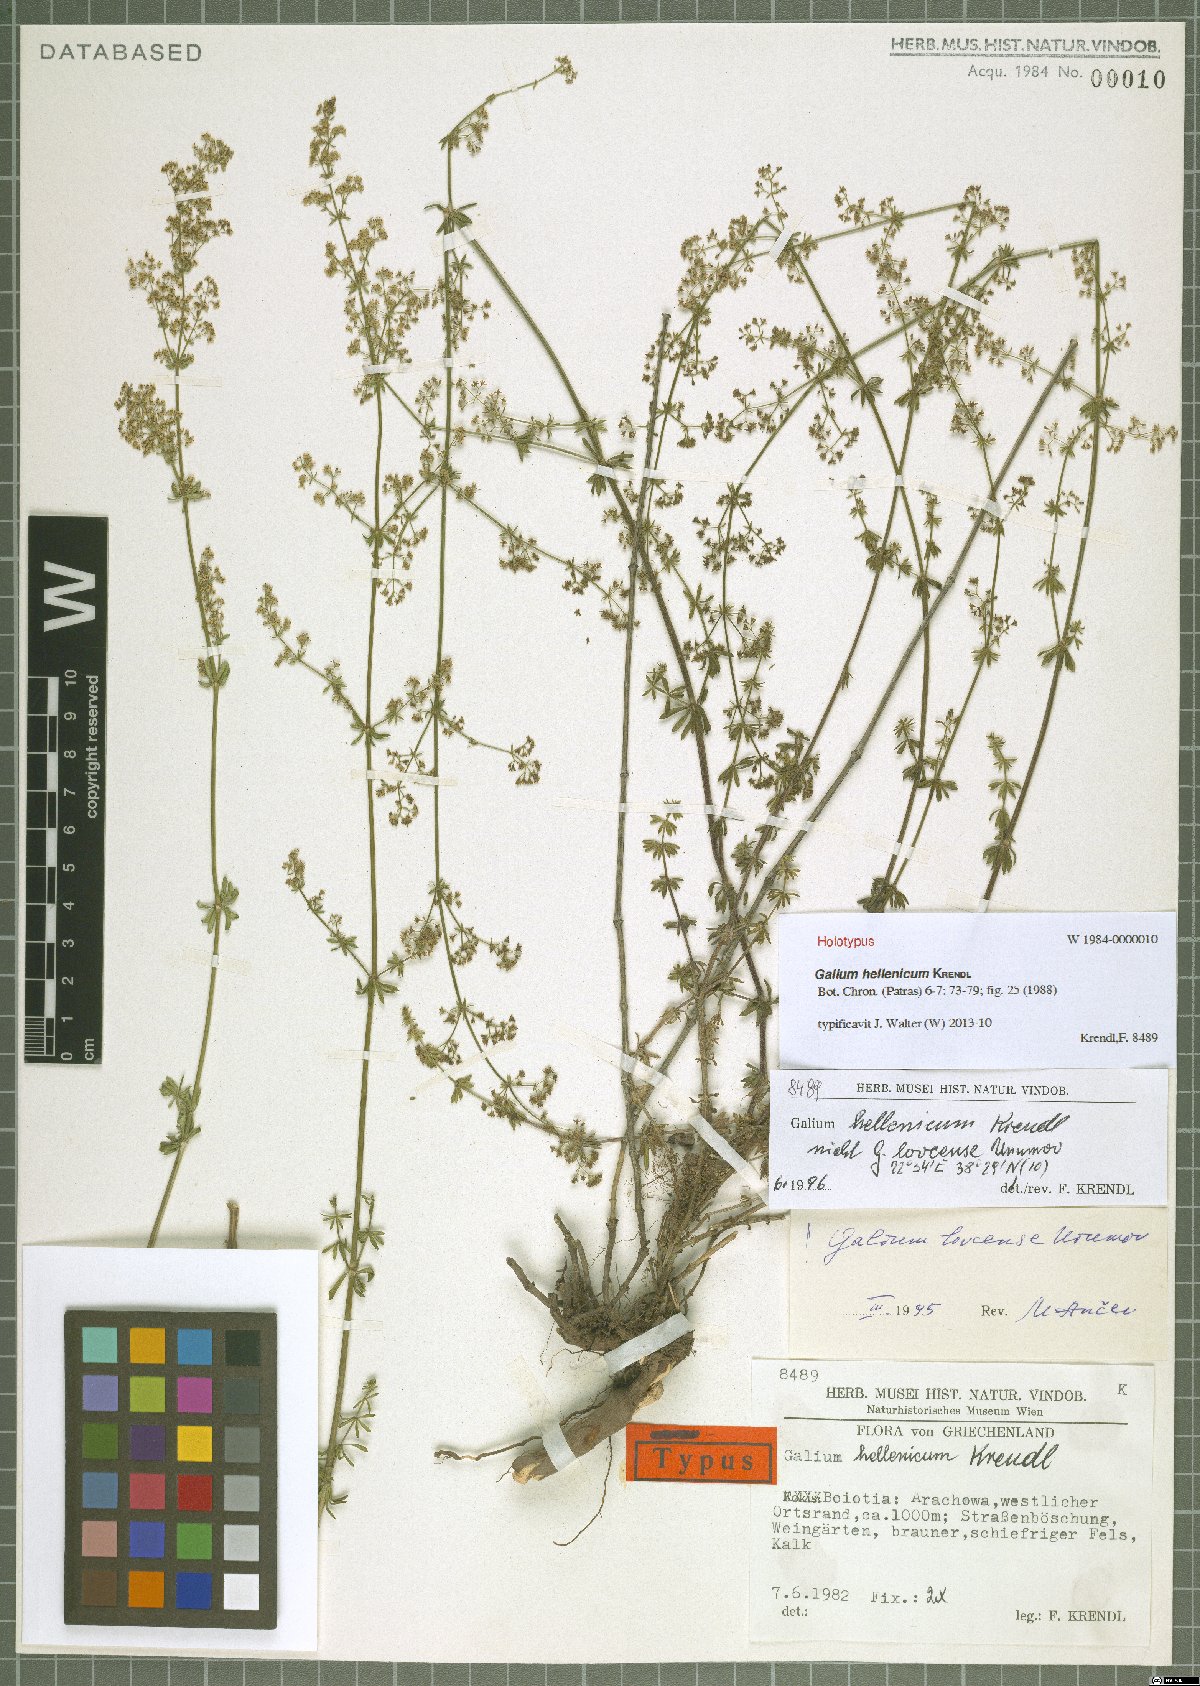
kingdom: Plantae
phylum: Tracheophyta
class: Magnoliopsida
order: Gentianales
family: Rubiaceae
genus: Galium
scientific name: Galium hellenicum
